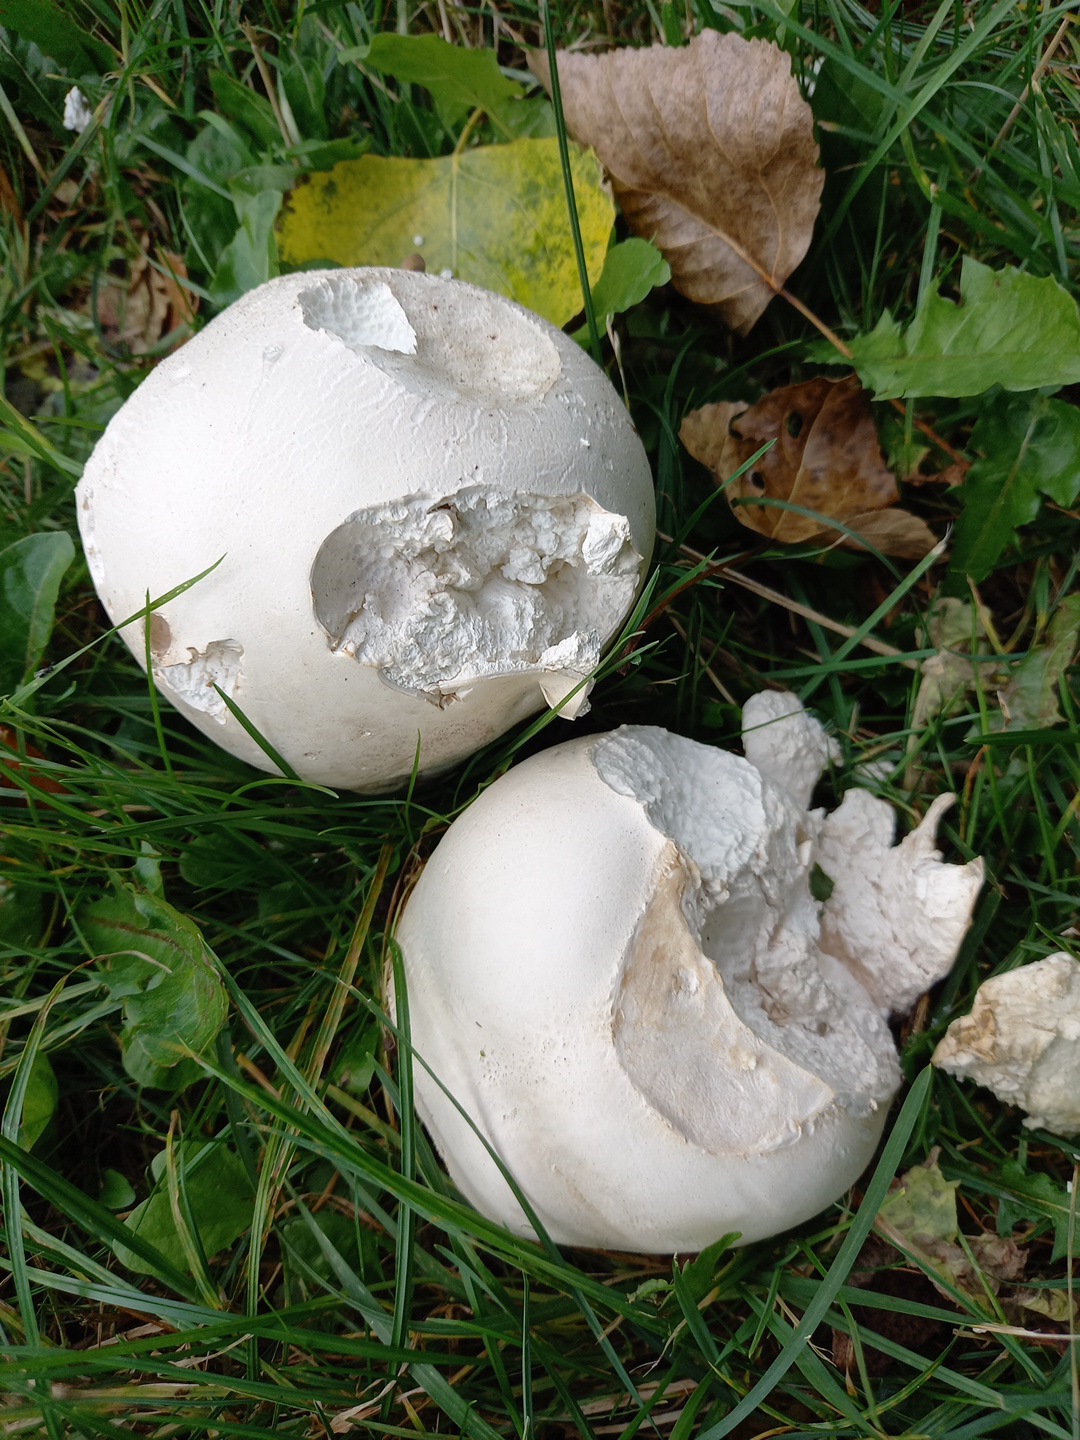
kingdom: Fungi
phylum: Basidiomycota
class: Agaricomycetes
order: Agaricales
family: Lycoperdaceae
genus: Calvatia
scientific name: Calvatia gigantea
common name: kæmpestøvbold
